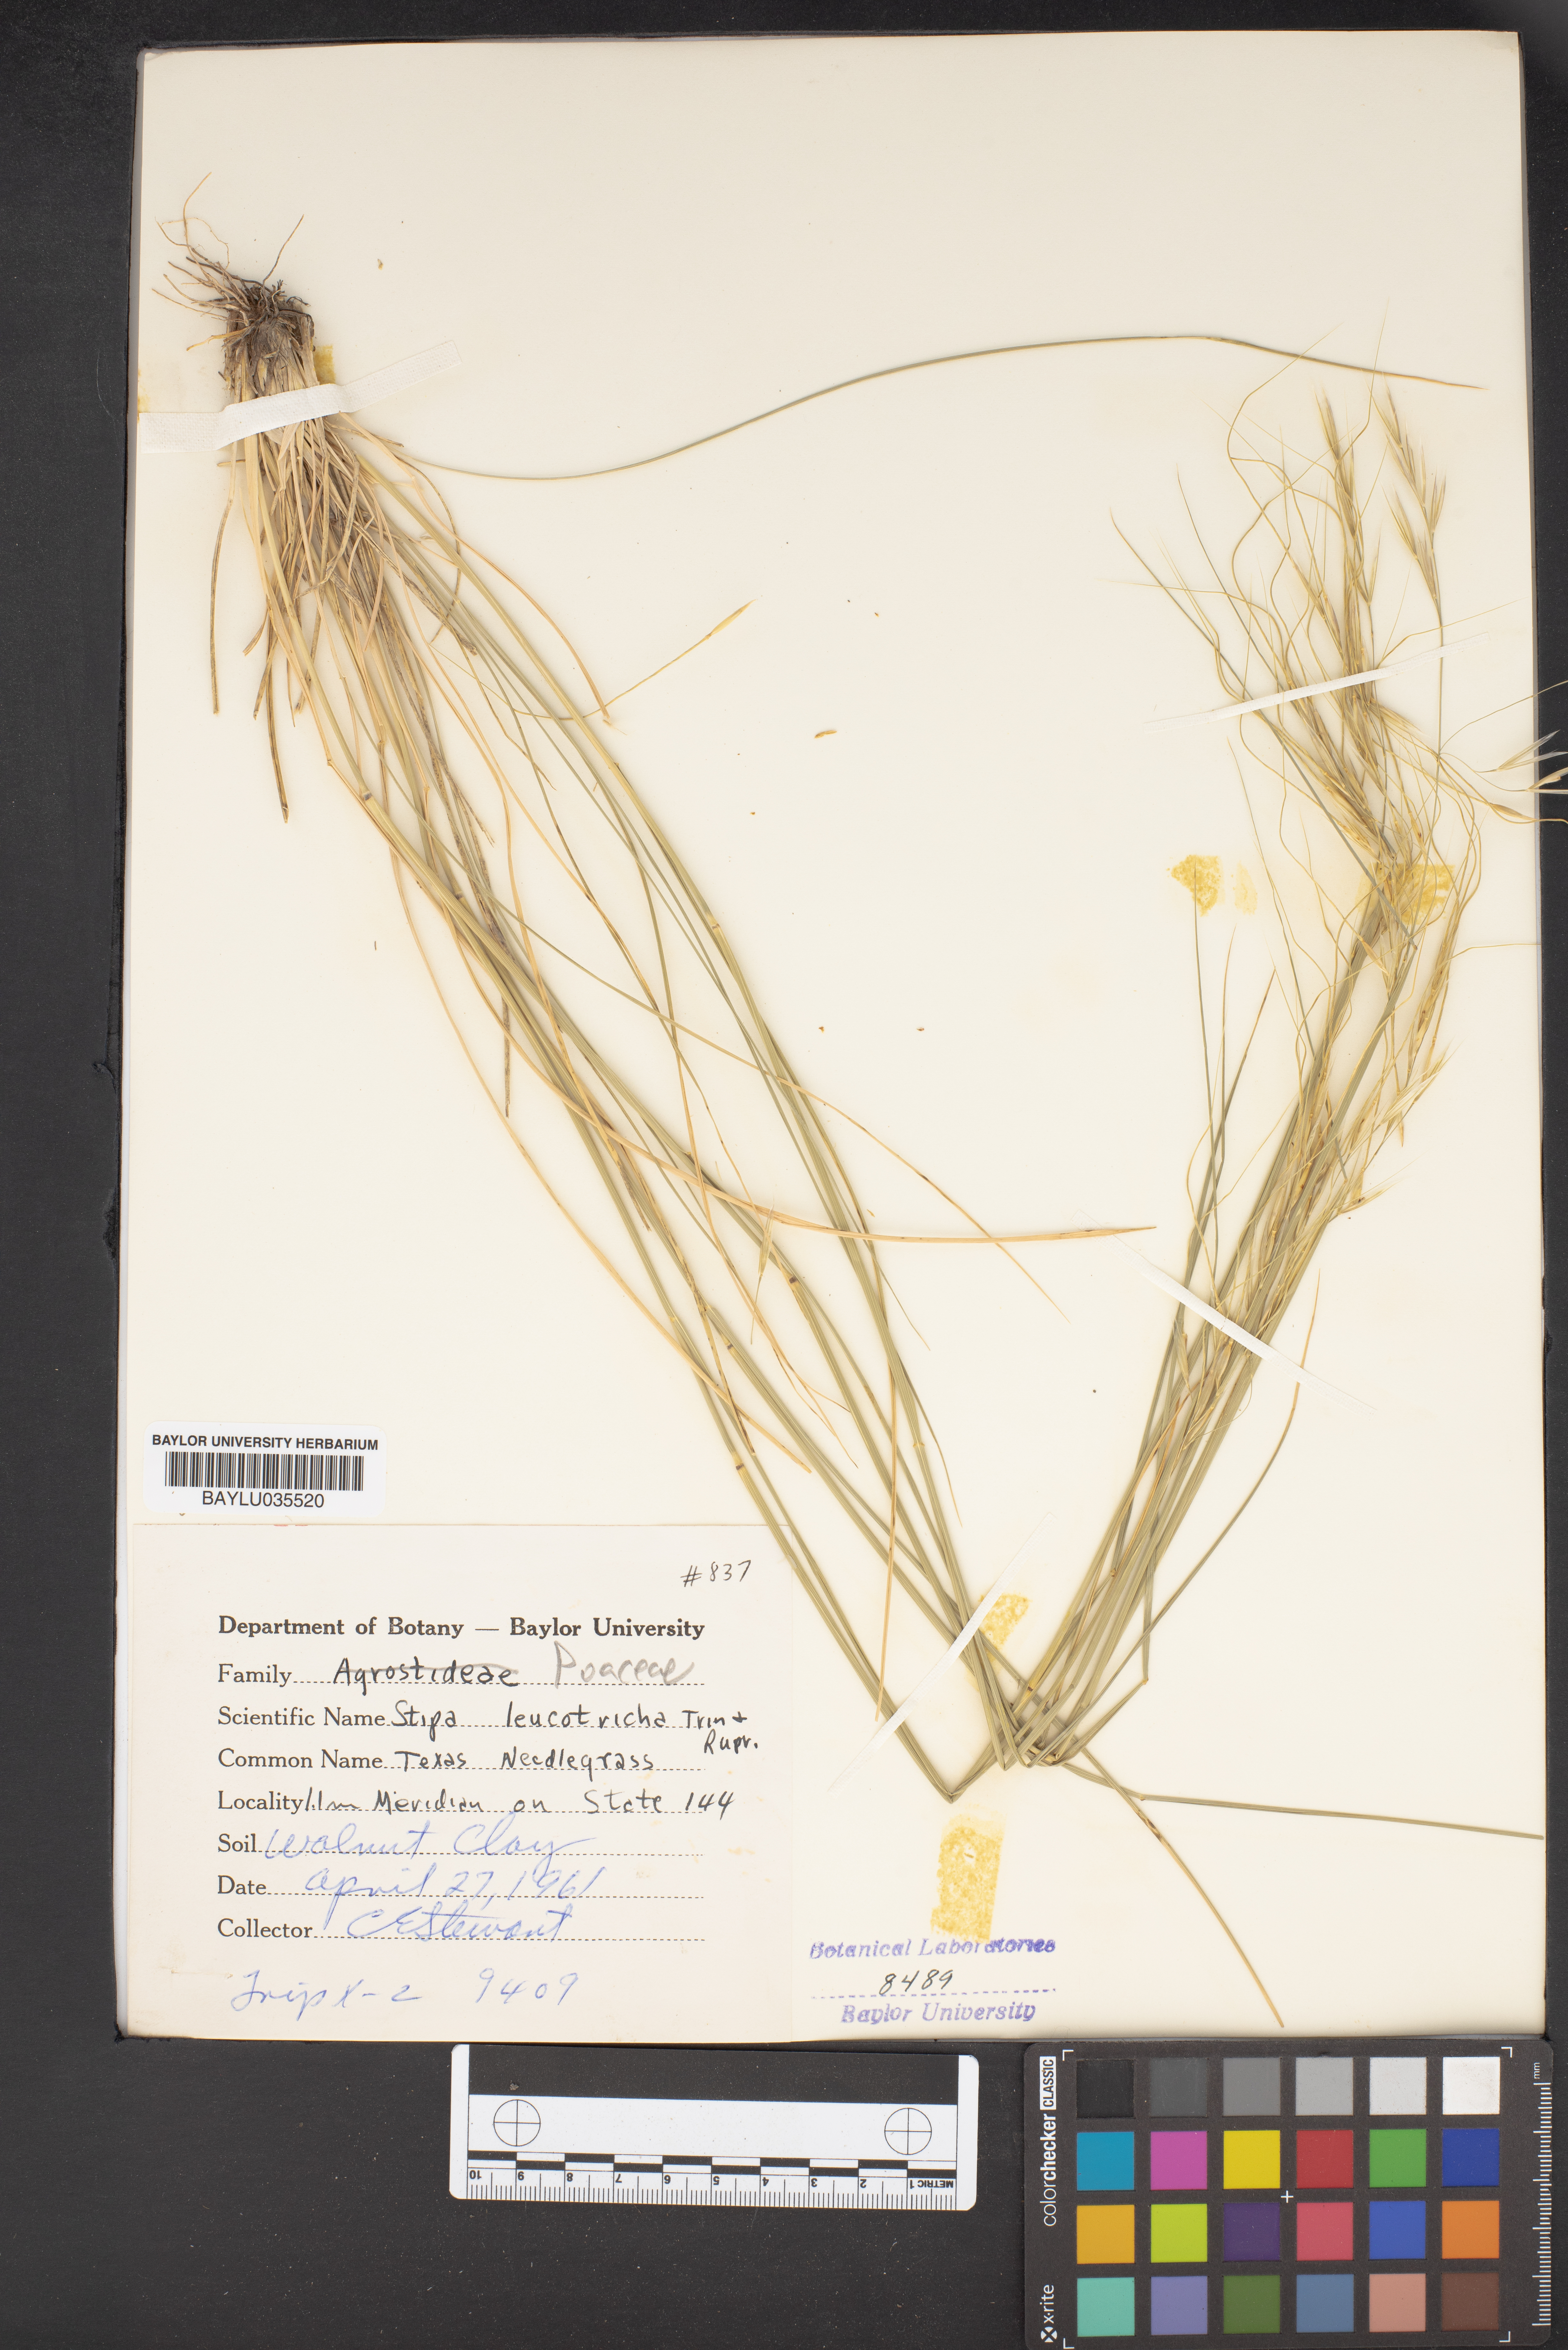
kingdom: Plantae
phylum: Tracheophyta
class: Liliopsida
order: Poales
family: Poaceae
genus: Nassella
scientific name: Nassella leucotricha
